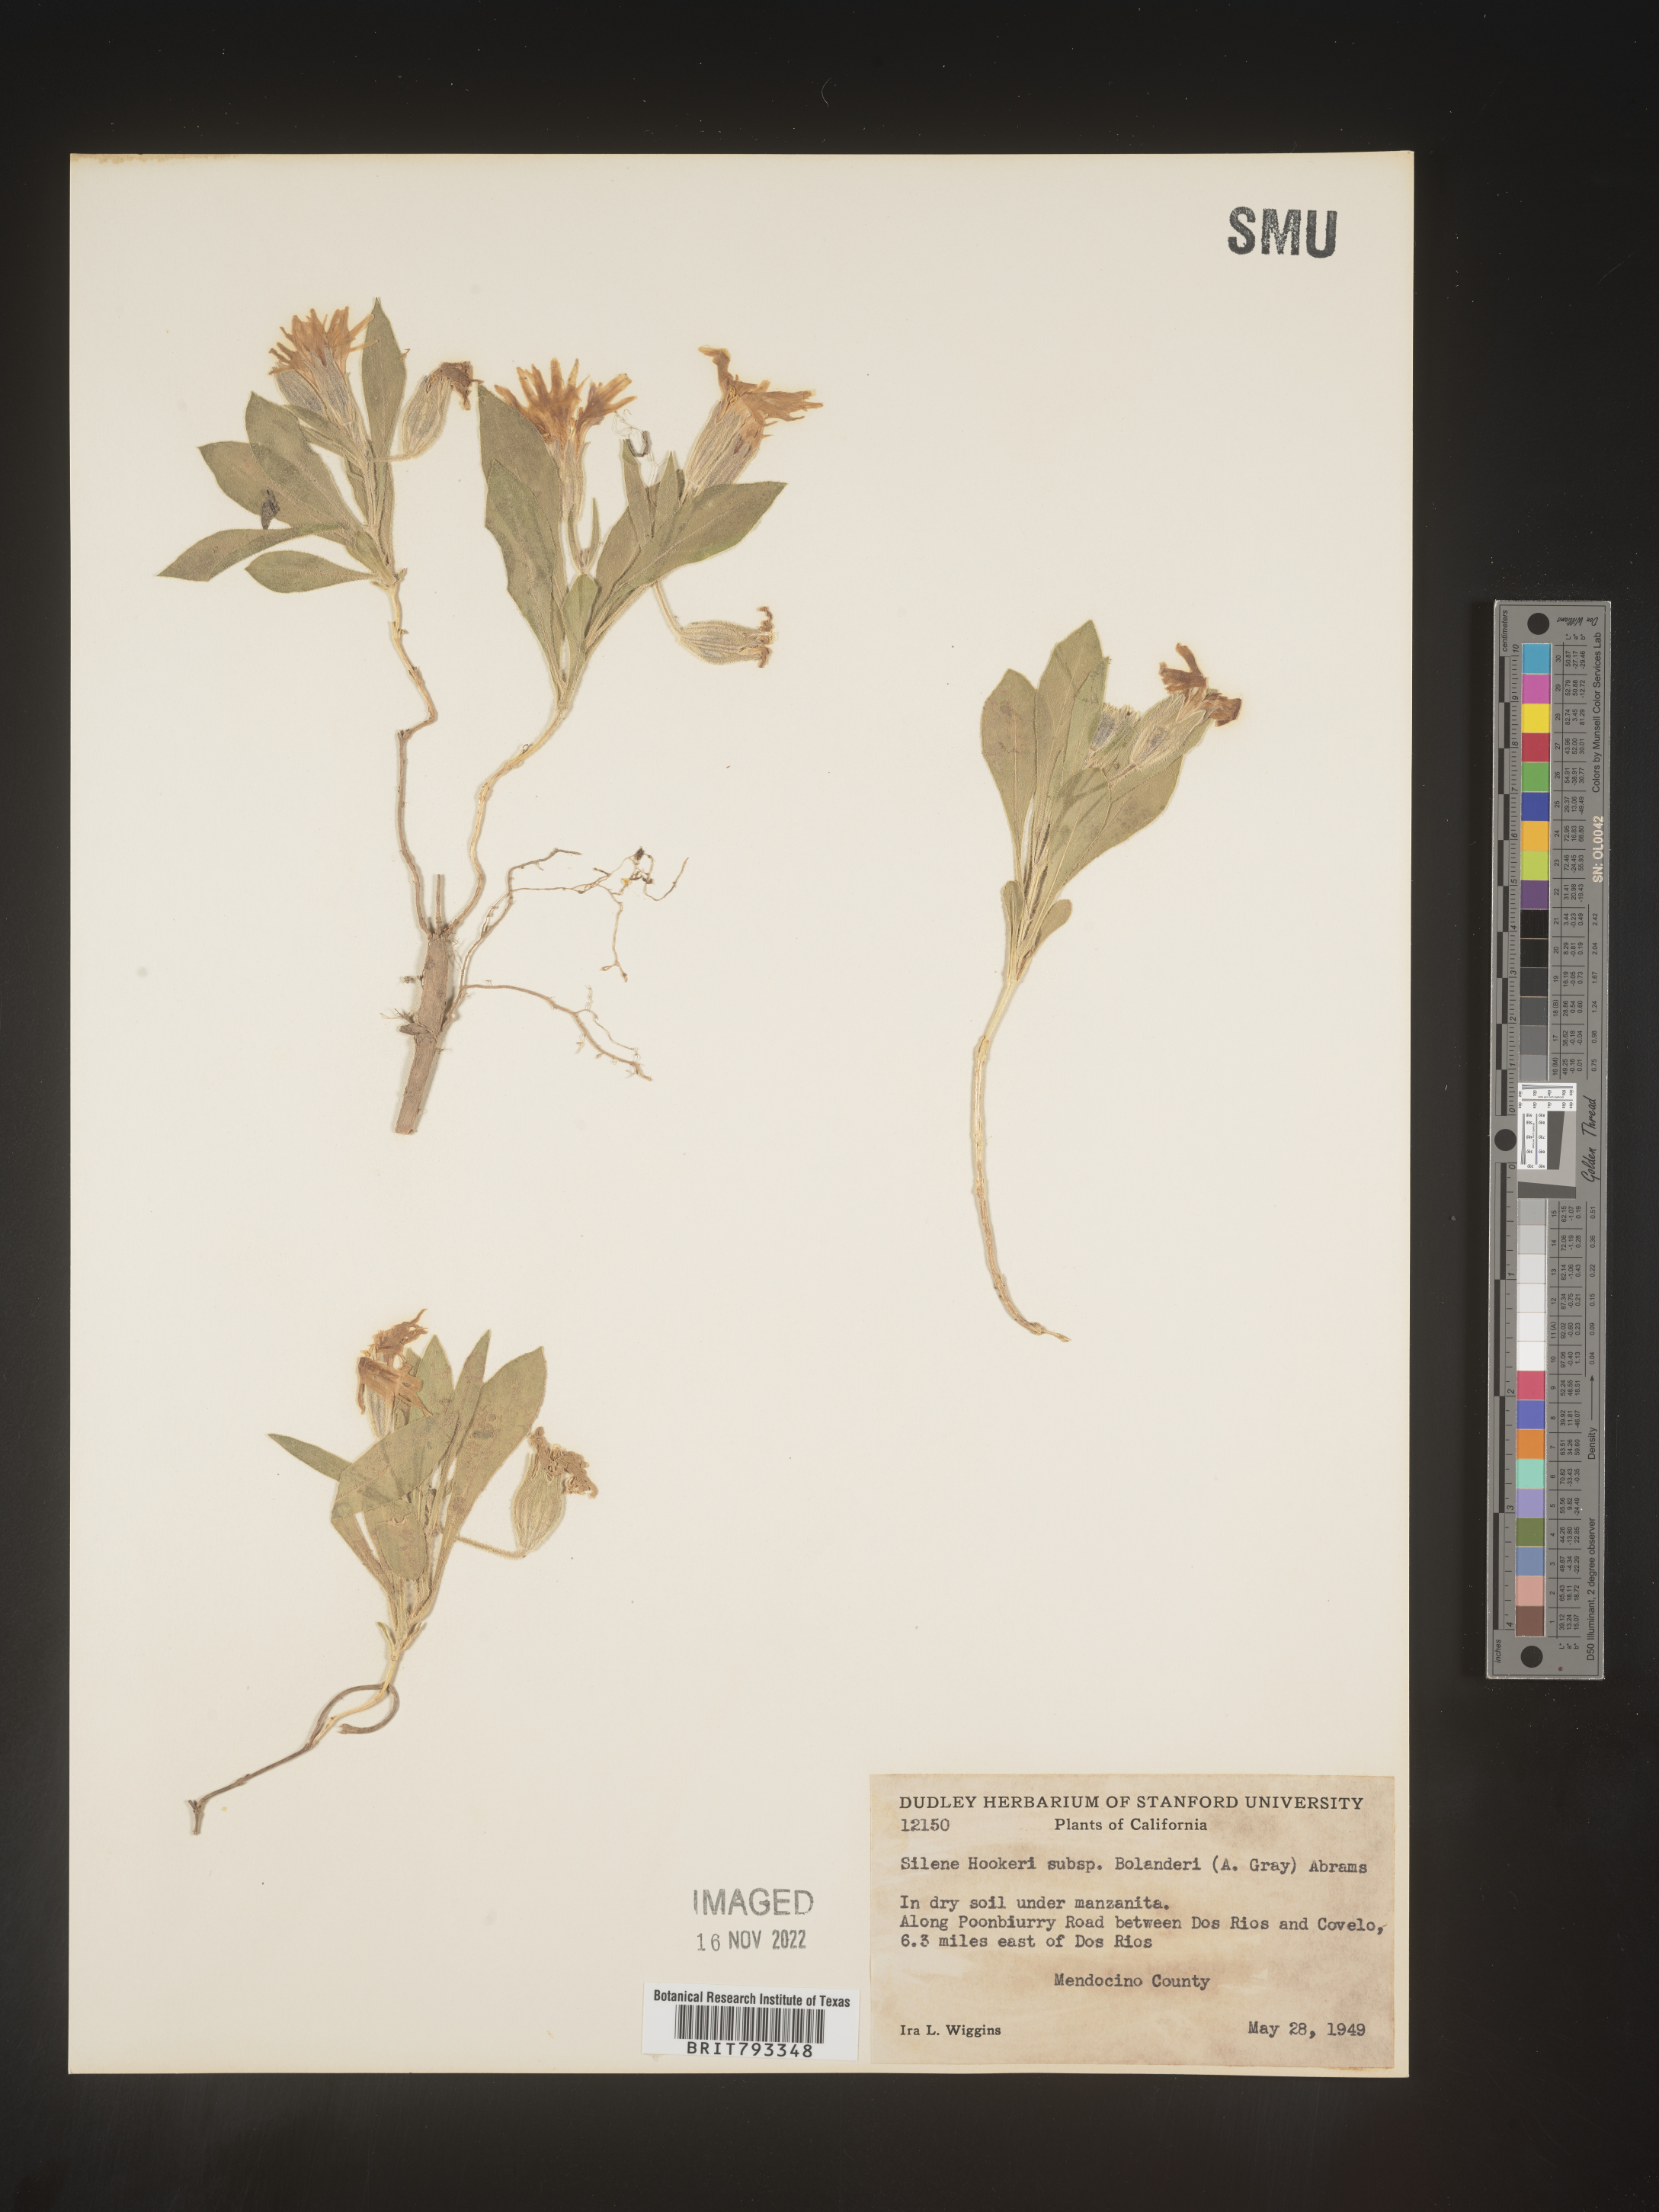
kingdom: Plantae
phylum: Tracheophyta
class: Magnoliopsida
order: Caryophyllales
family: Caryophyllaceae
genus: Silene
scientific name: Silene bolanderi
